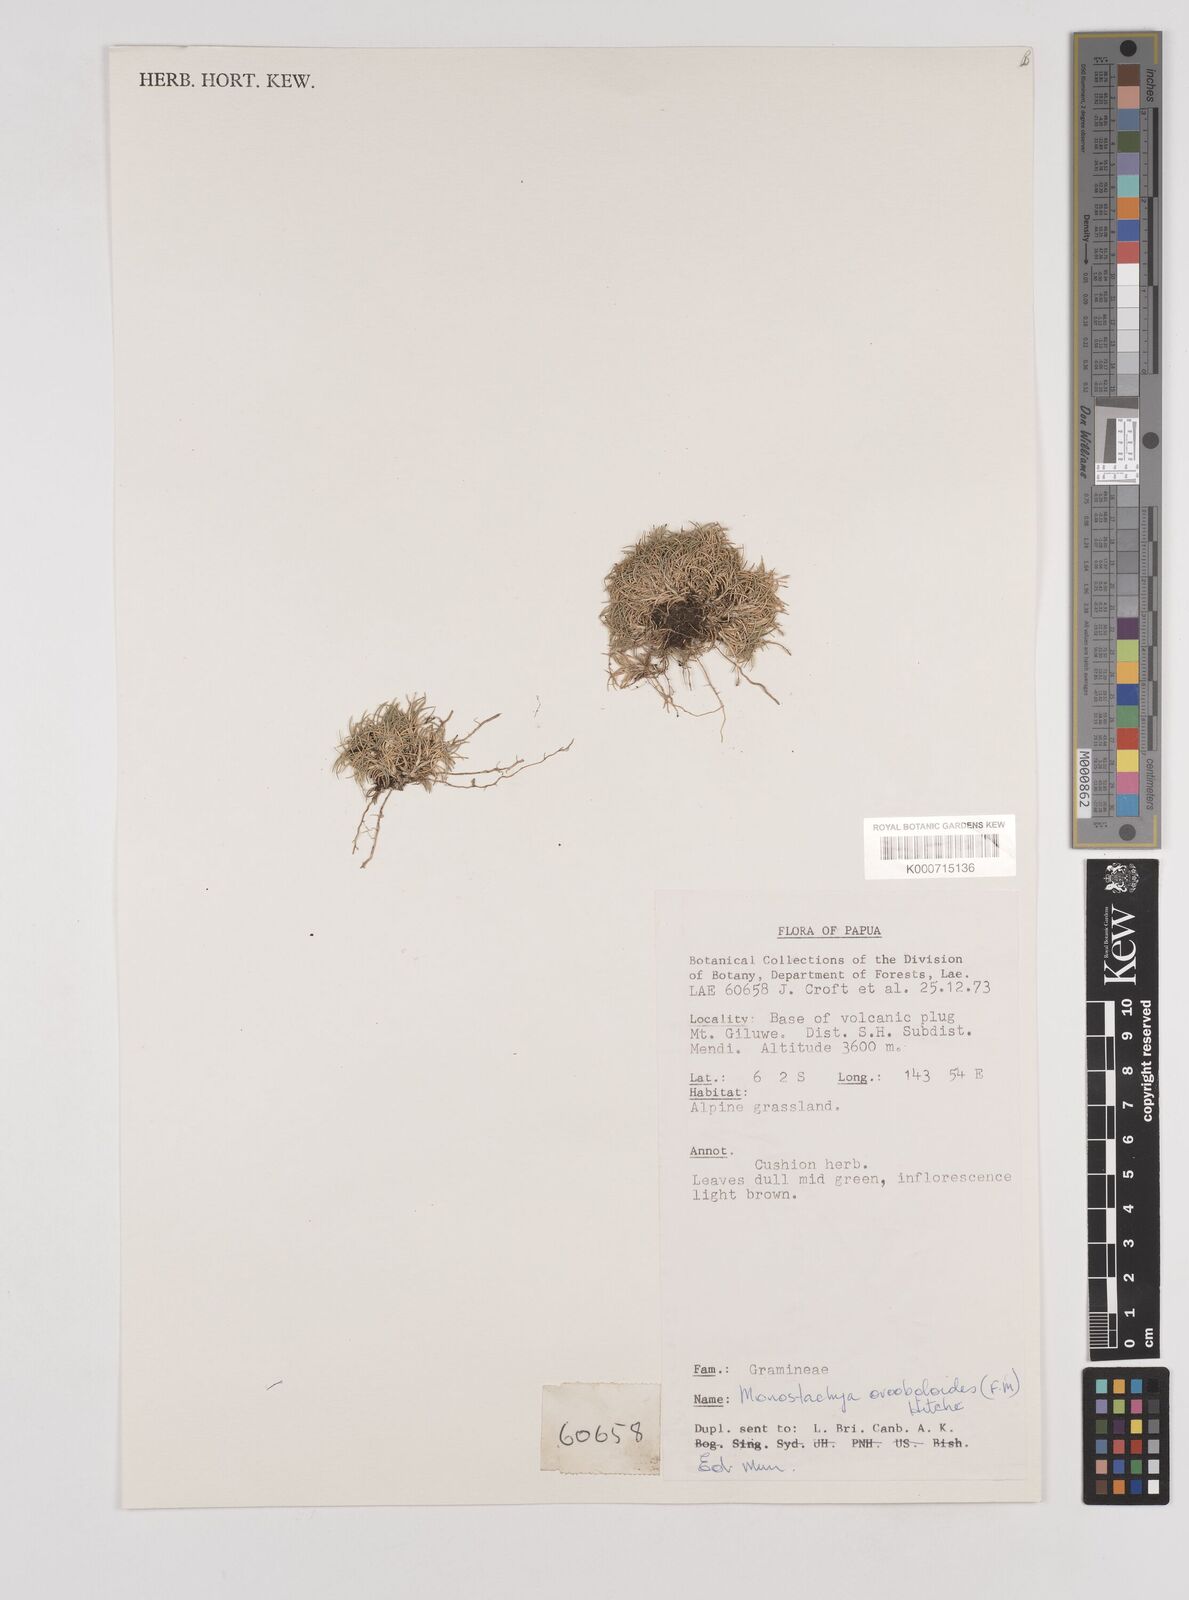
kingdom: Plantae
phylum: Tracheophyta
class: Liliopsida
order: Poales
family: Poaceae
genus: Rytidosperma
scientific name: Rytidosperma oreoboloides
